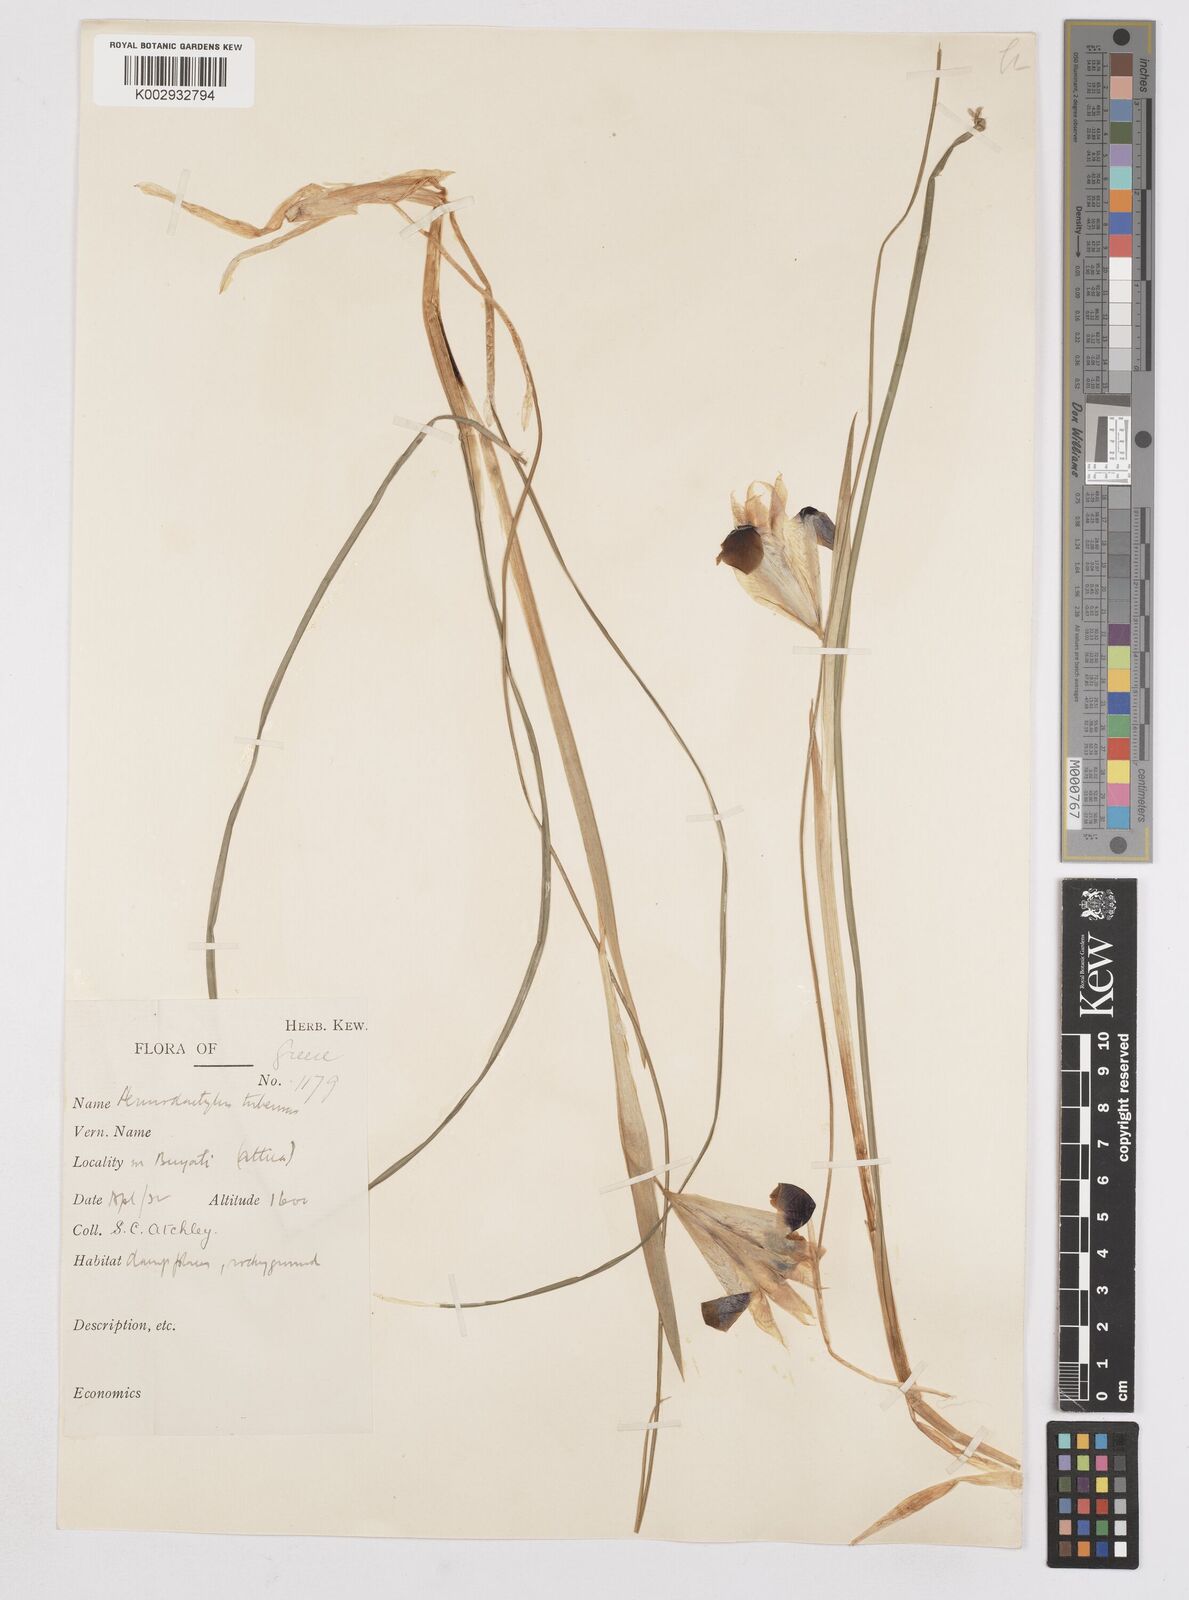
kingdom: Plantae
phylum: Tracheophyta
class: Liliopsida
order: Asparagales
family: Iridaceae
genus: Iris
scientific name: Iris tuberosa
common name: Snake's-head iris
